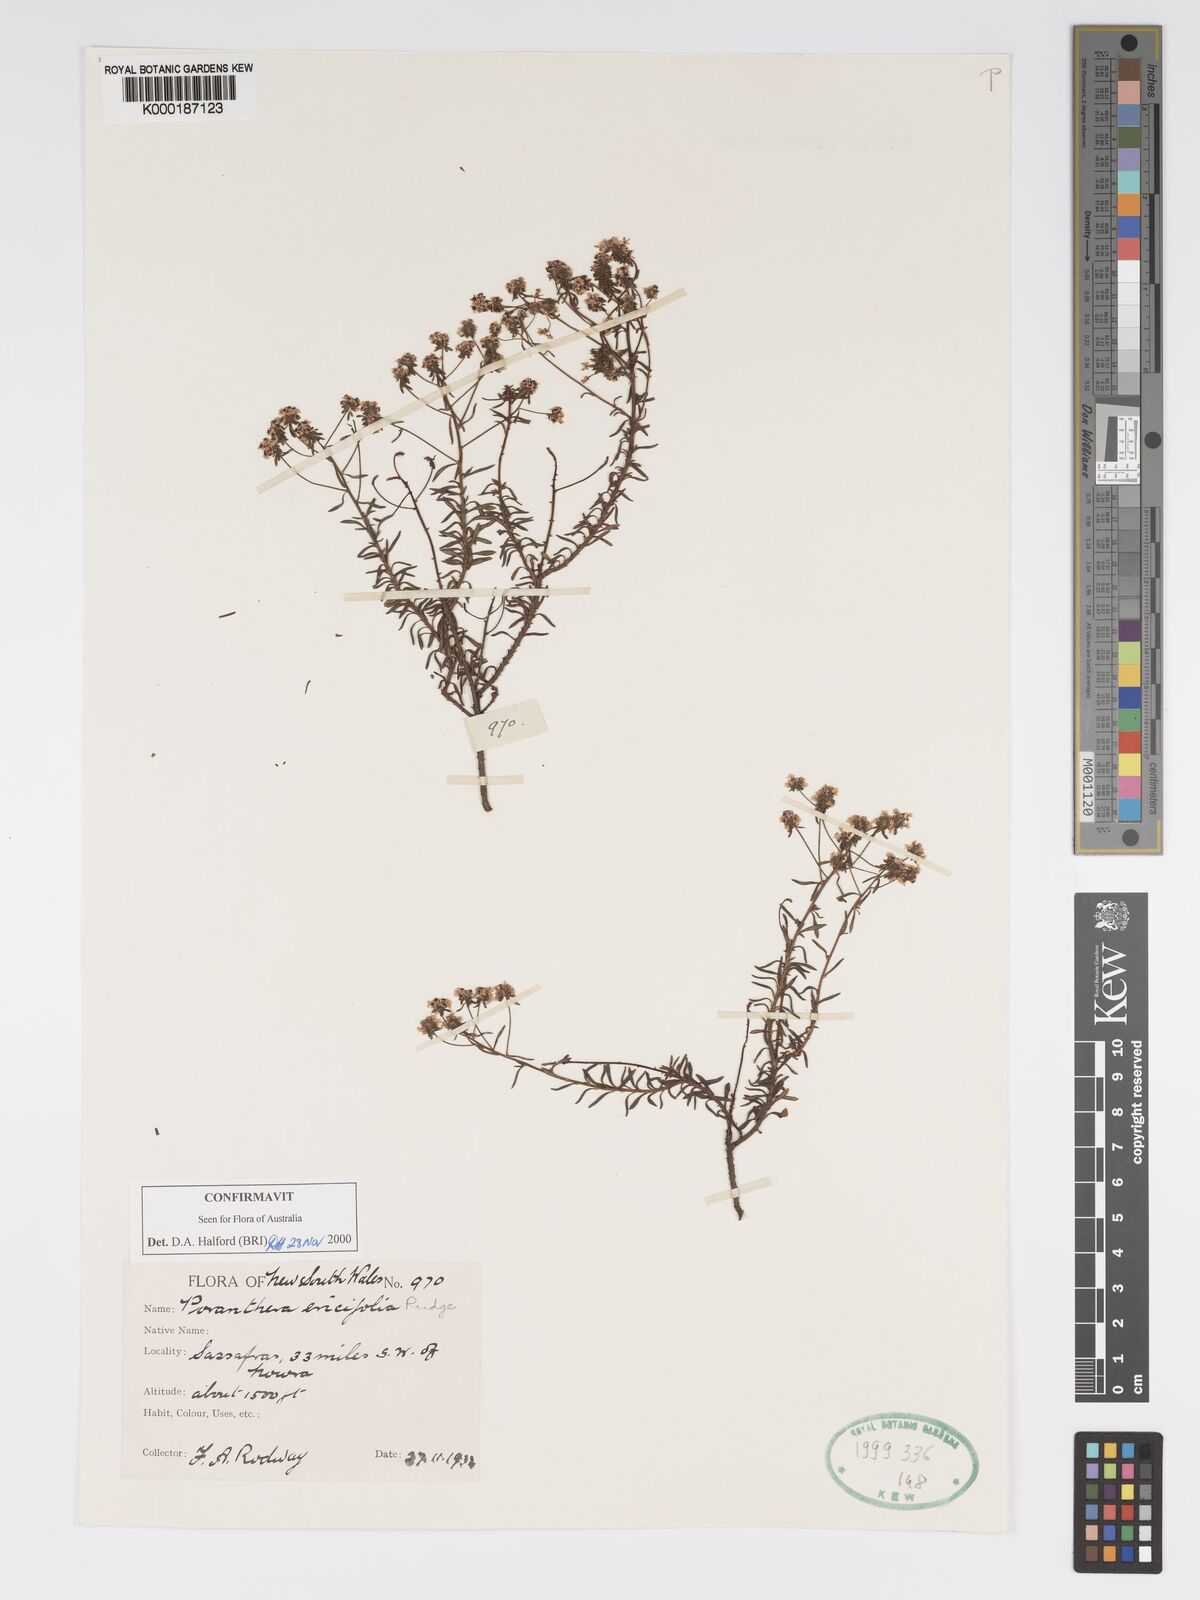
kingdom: Plantae
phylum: Tracheophyta
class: Magnoliopsida
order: Malpighiales
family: Phyllanthaceae
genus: Poranthera
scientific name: Poranthera ericifolia
